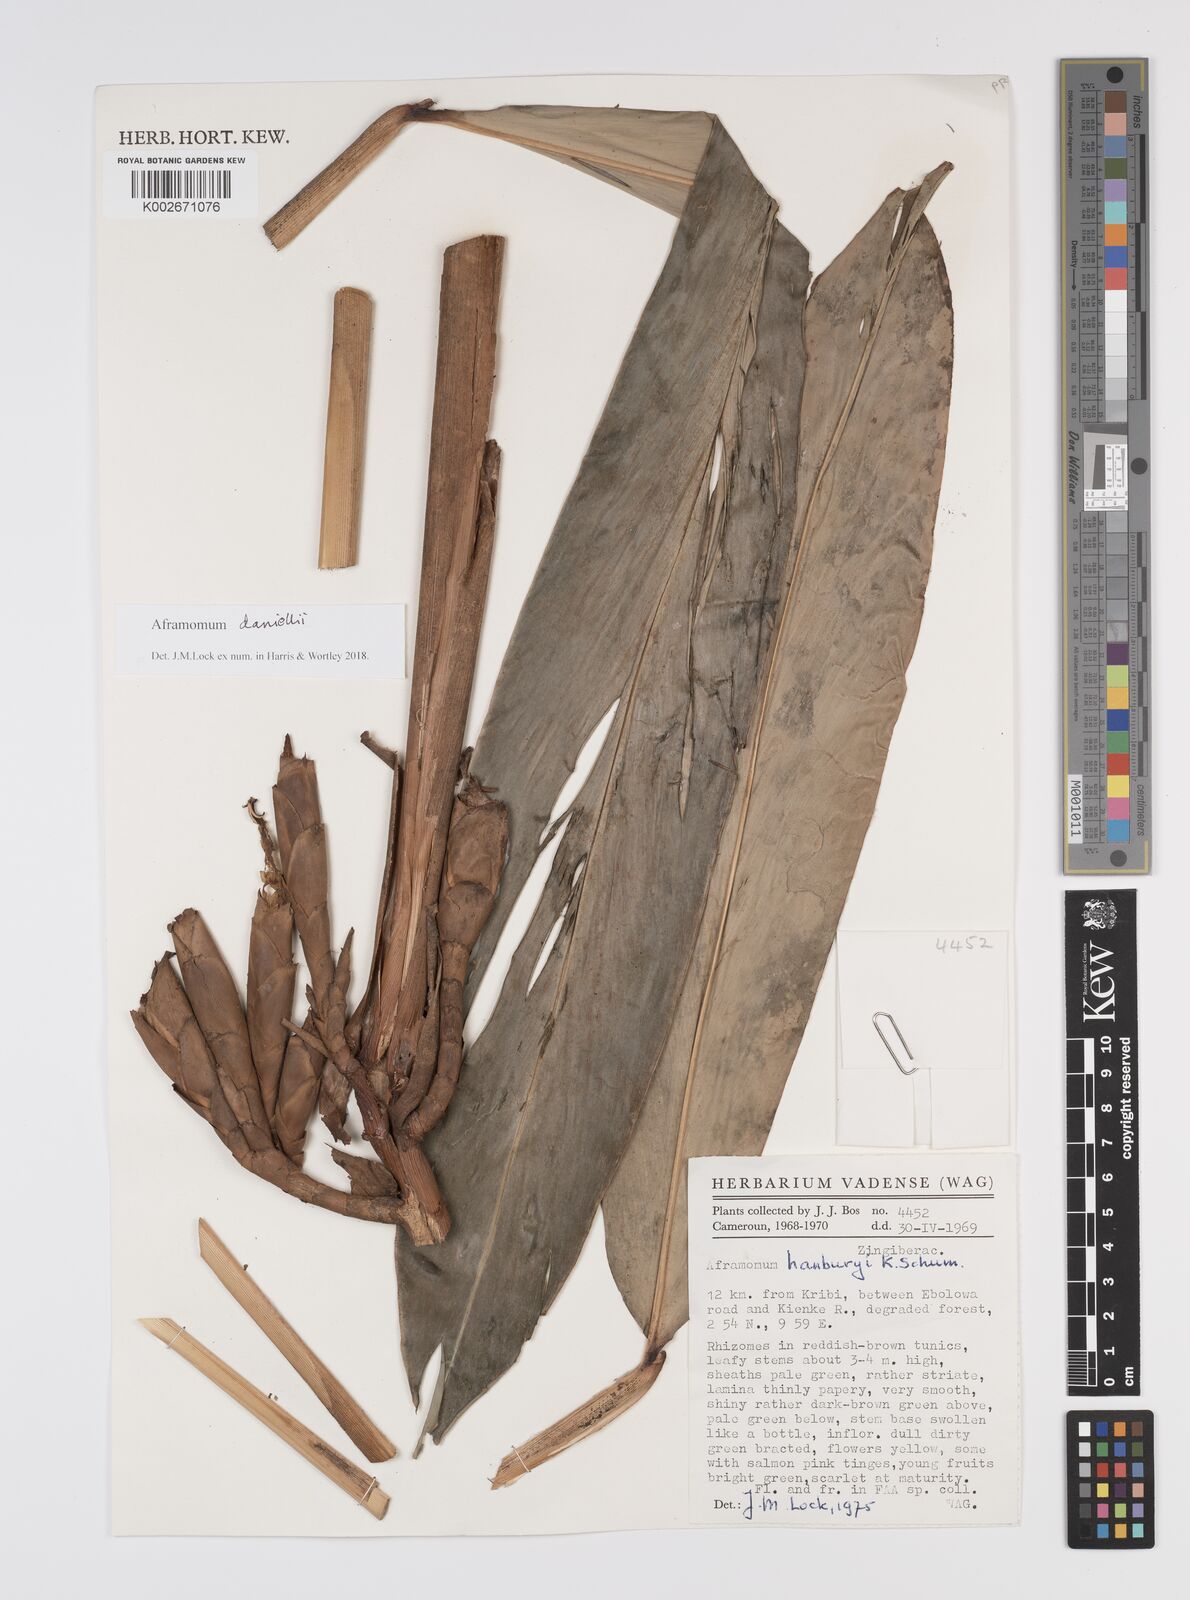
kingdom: Plantae
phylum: Tracheophyta
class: Liliopsida
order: Zingiberales
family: Zingiberaceae
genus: Aframomum
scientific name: Aframomum daniellii
